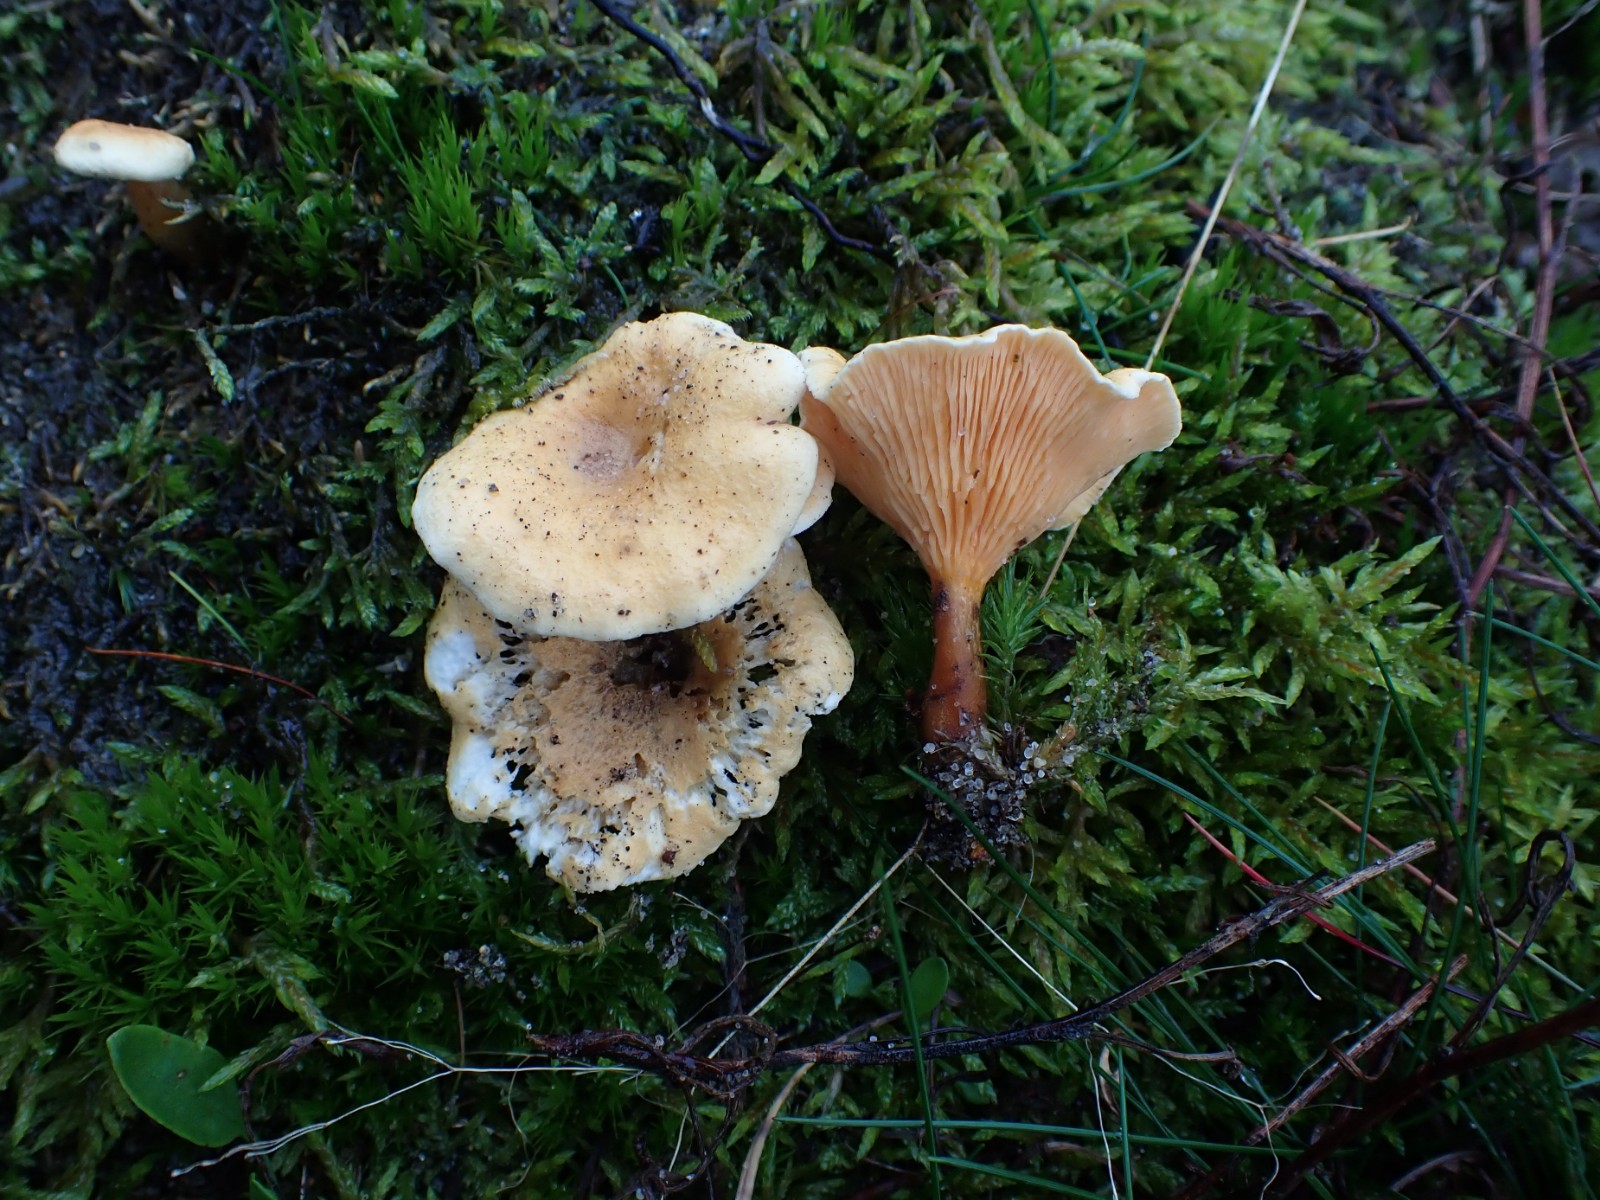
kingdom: Fungi
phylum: Basidiomycota
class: Agaricomycetes
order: Boletales
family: Hygrophoropsidaceae
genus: Hygrophoropsis
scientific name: Hygrophoropsis aurantiaca
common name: almindelig orangekantarel
